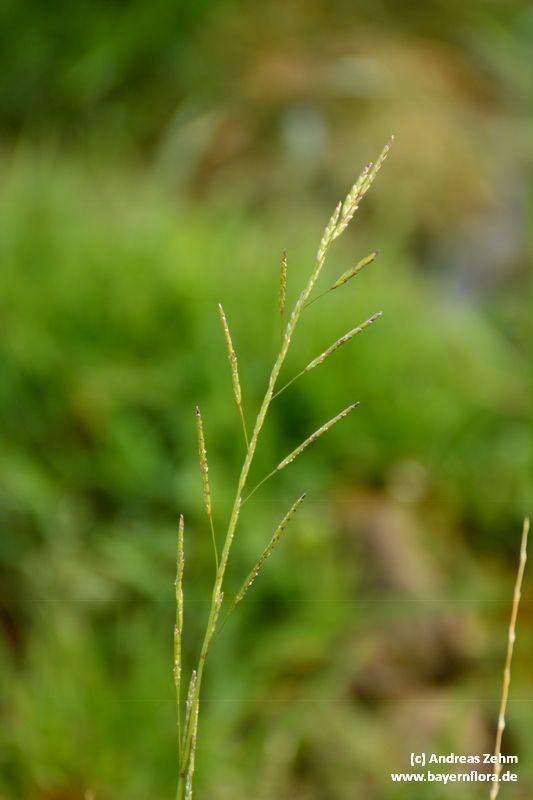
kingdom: Plantae
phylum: Tracheophyta
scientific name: Tracheophyta
